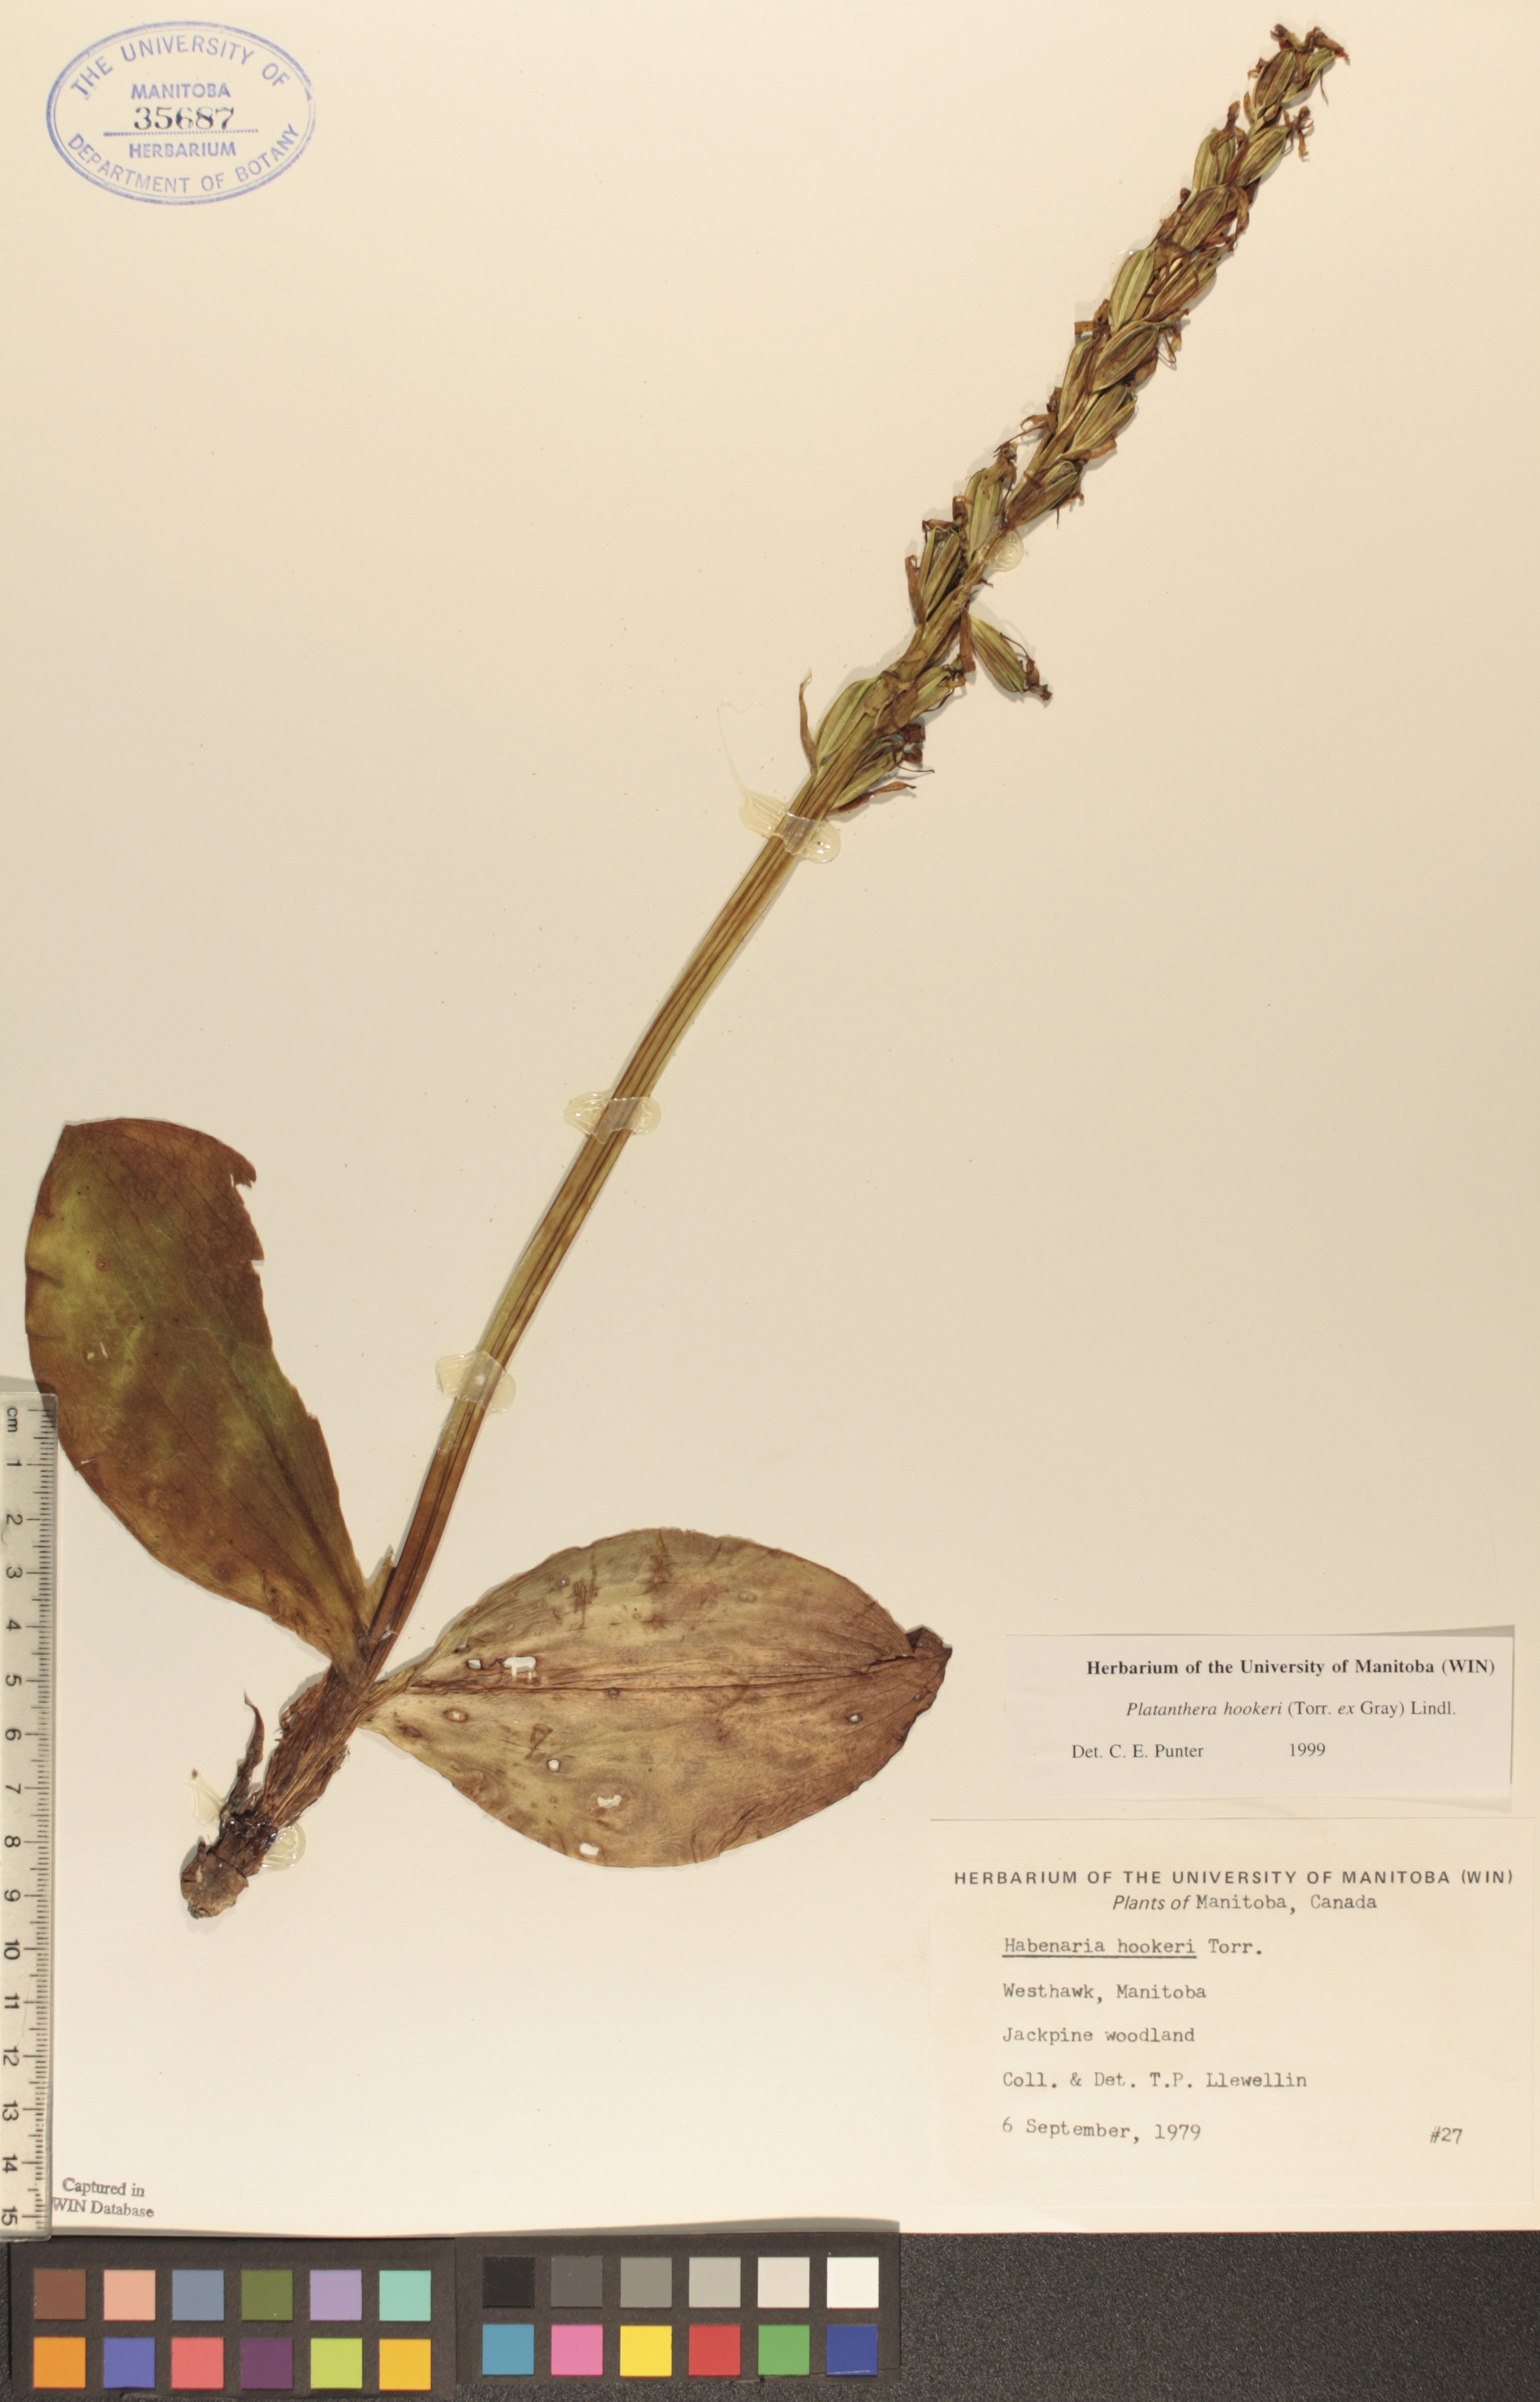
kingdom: Plantae
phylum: Tracheophyta
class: Liliopsida
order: Asparagales
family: Orchidaceae
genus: Platanthera
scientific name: Platanthera hookeri
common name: Hooker's orchid
